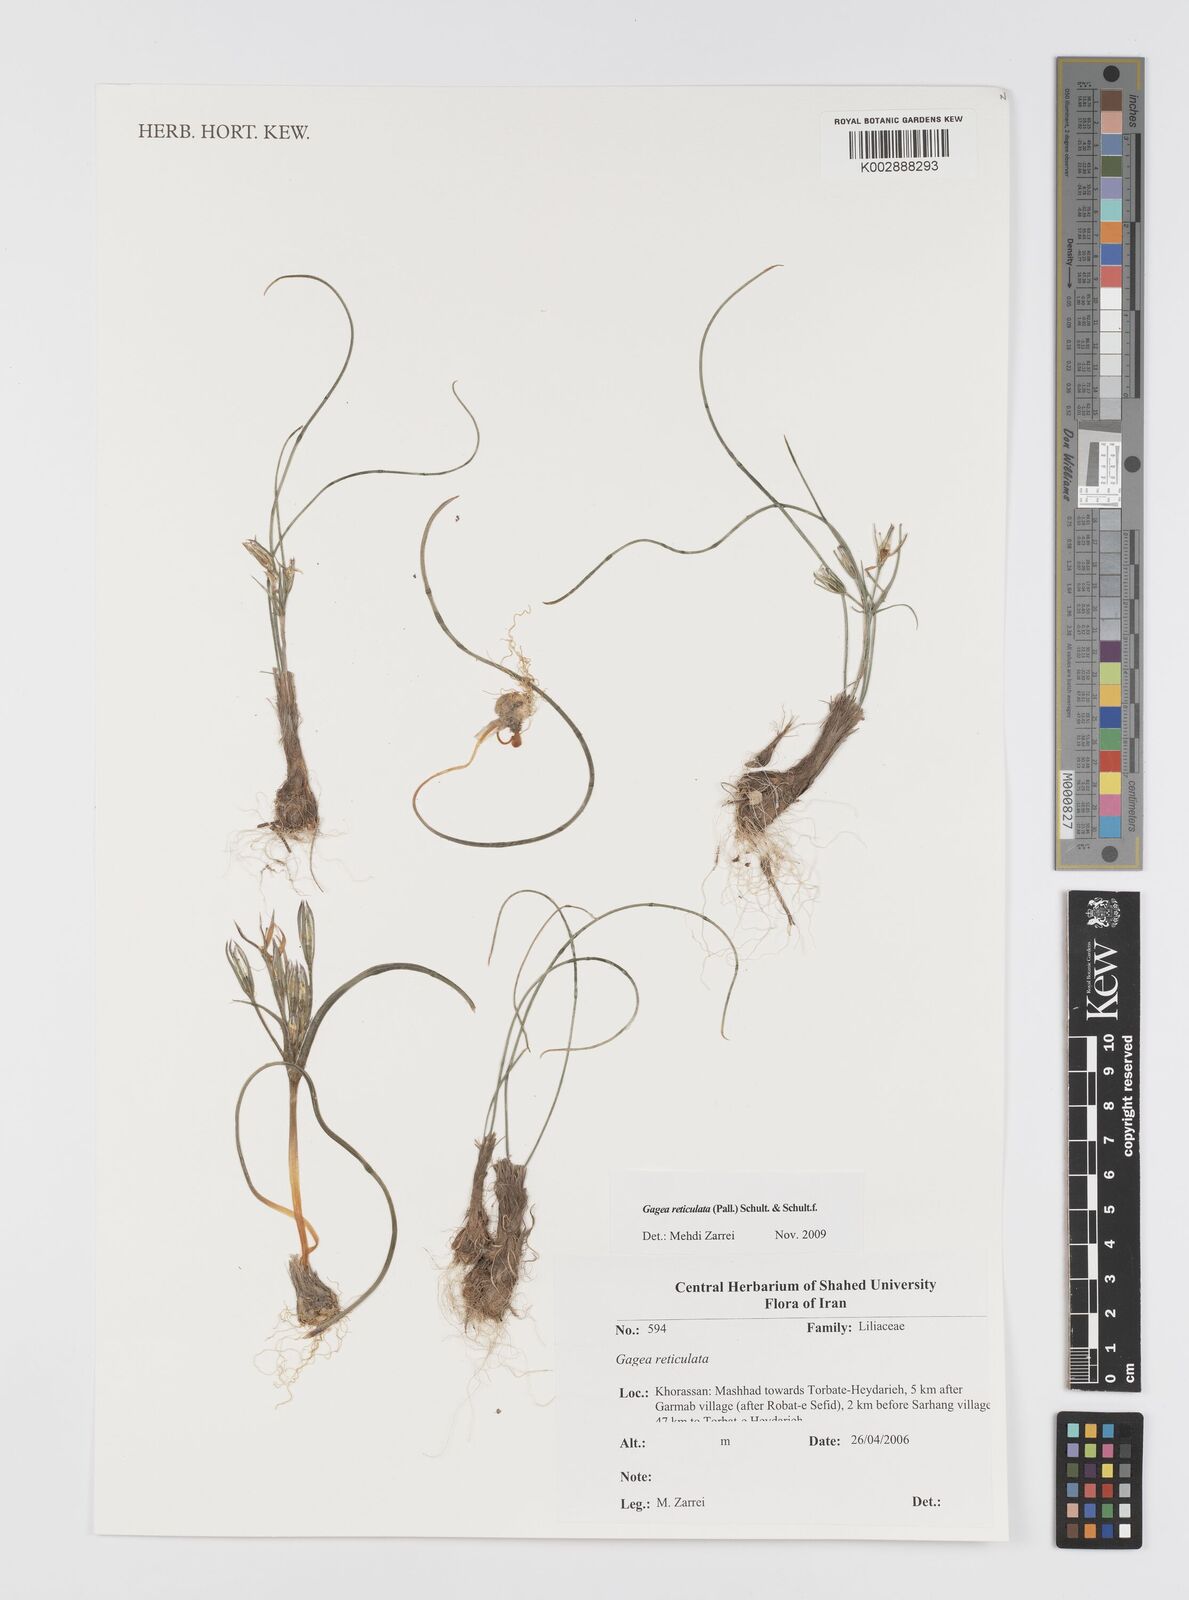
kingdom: Plantae
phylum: Tracheophyta
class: Liliopsida
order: Liliales
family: Liliaceae
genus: Gagea
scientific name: Gagea reticulata
